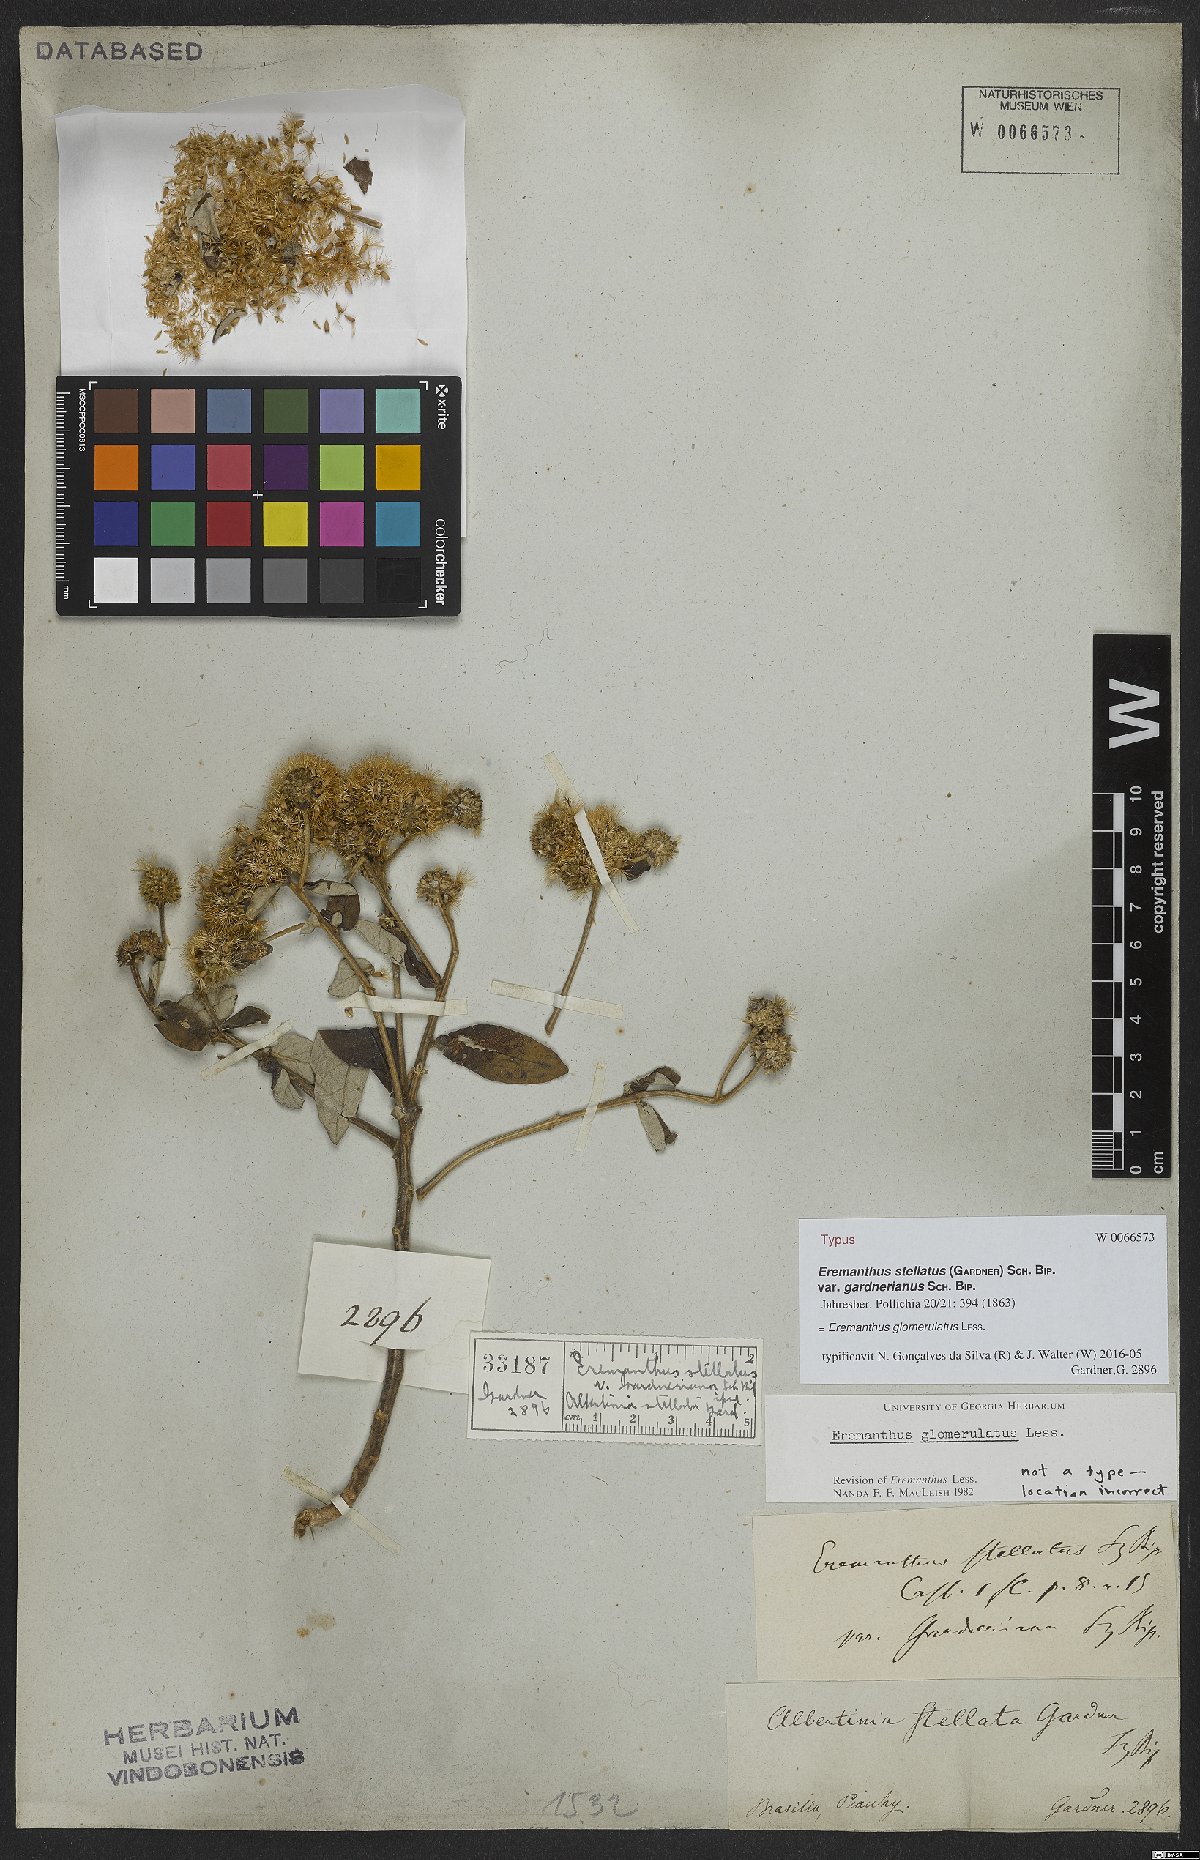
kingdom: Plantae
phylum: Tracheophyta
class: Magnoliopsida
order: Asterales
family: Asteraceae
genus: Eremanthus
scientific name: Eremanthus glomerulatus
